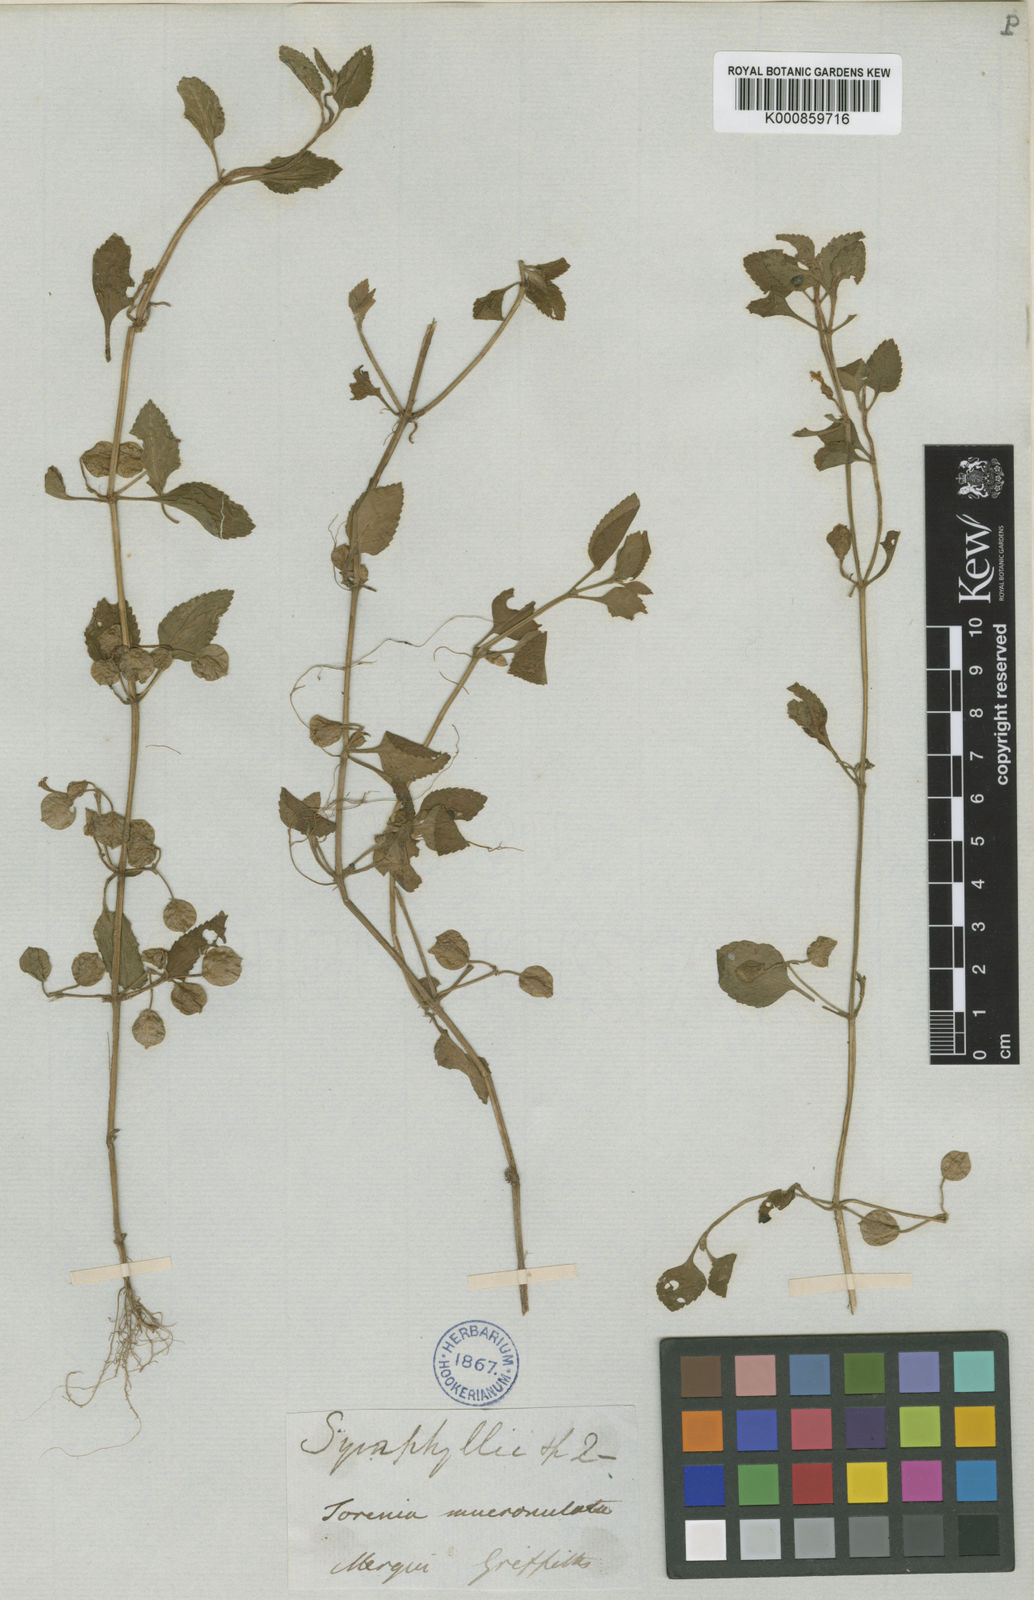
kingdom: Plantae
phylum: Tracheophyta
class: Magnoliopsida
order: Lamiales
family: Linderniaceae
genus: Legazpia
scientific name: Legazpia polygonoides
